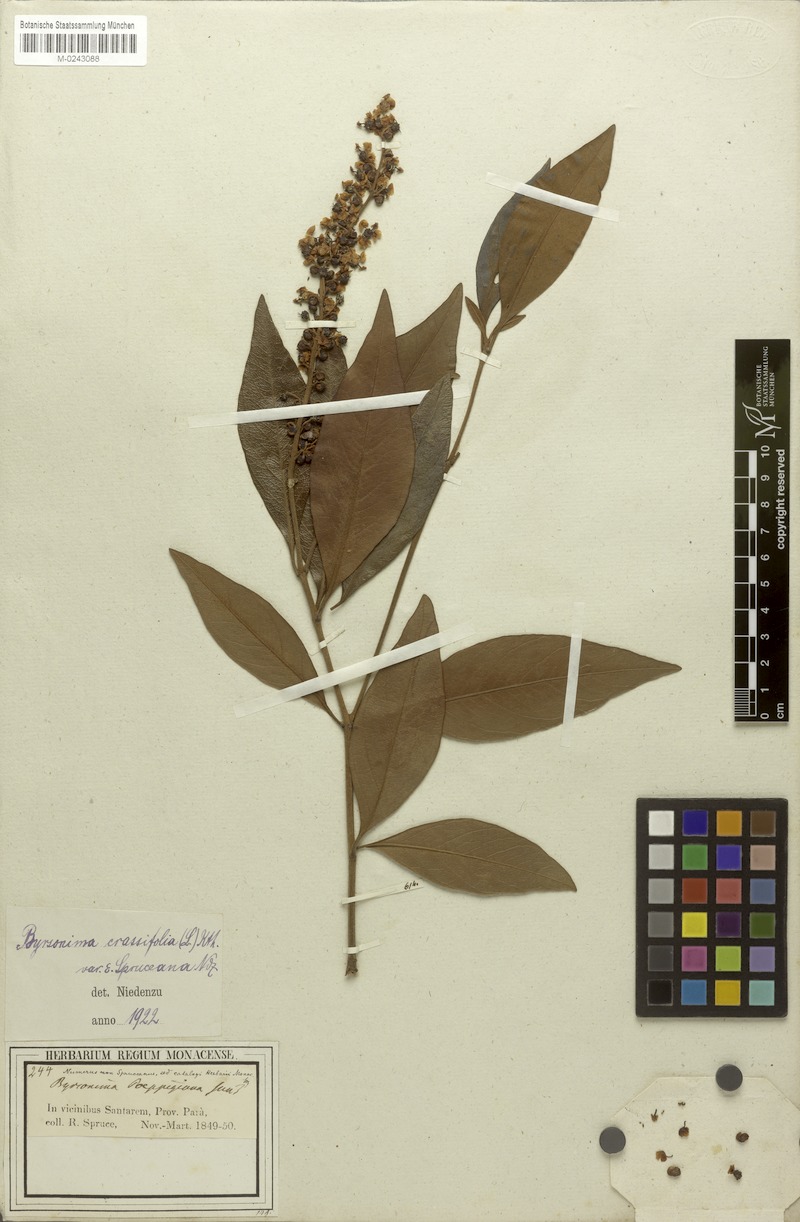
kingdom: Plantae
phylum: Tracheophyta
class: Magnoliopsida
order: Malpighiales
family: Malpighiaceae
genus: Byrsonima
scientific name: Byrsonima crassifolia
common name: Golden spoon
